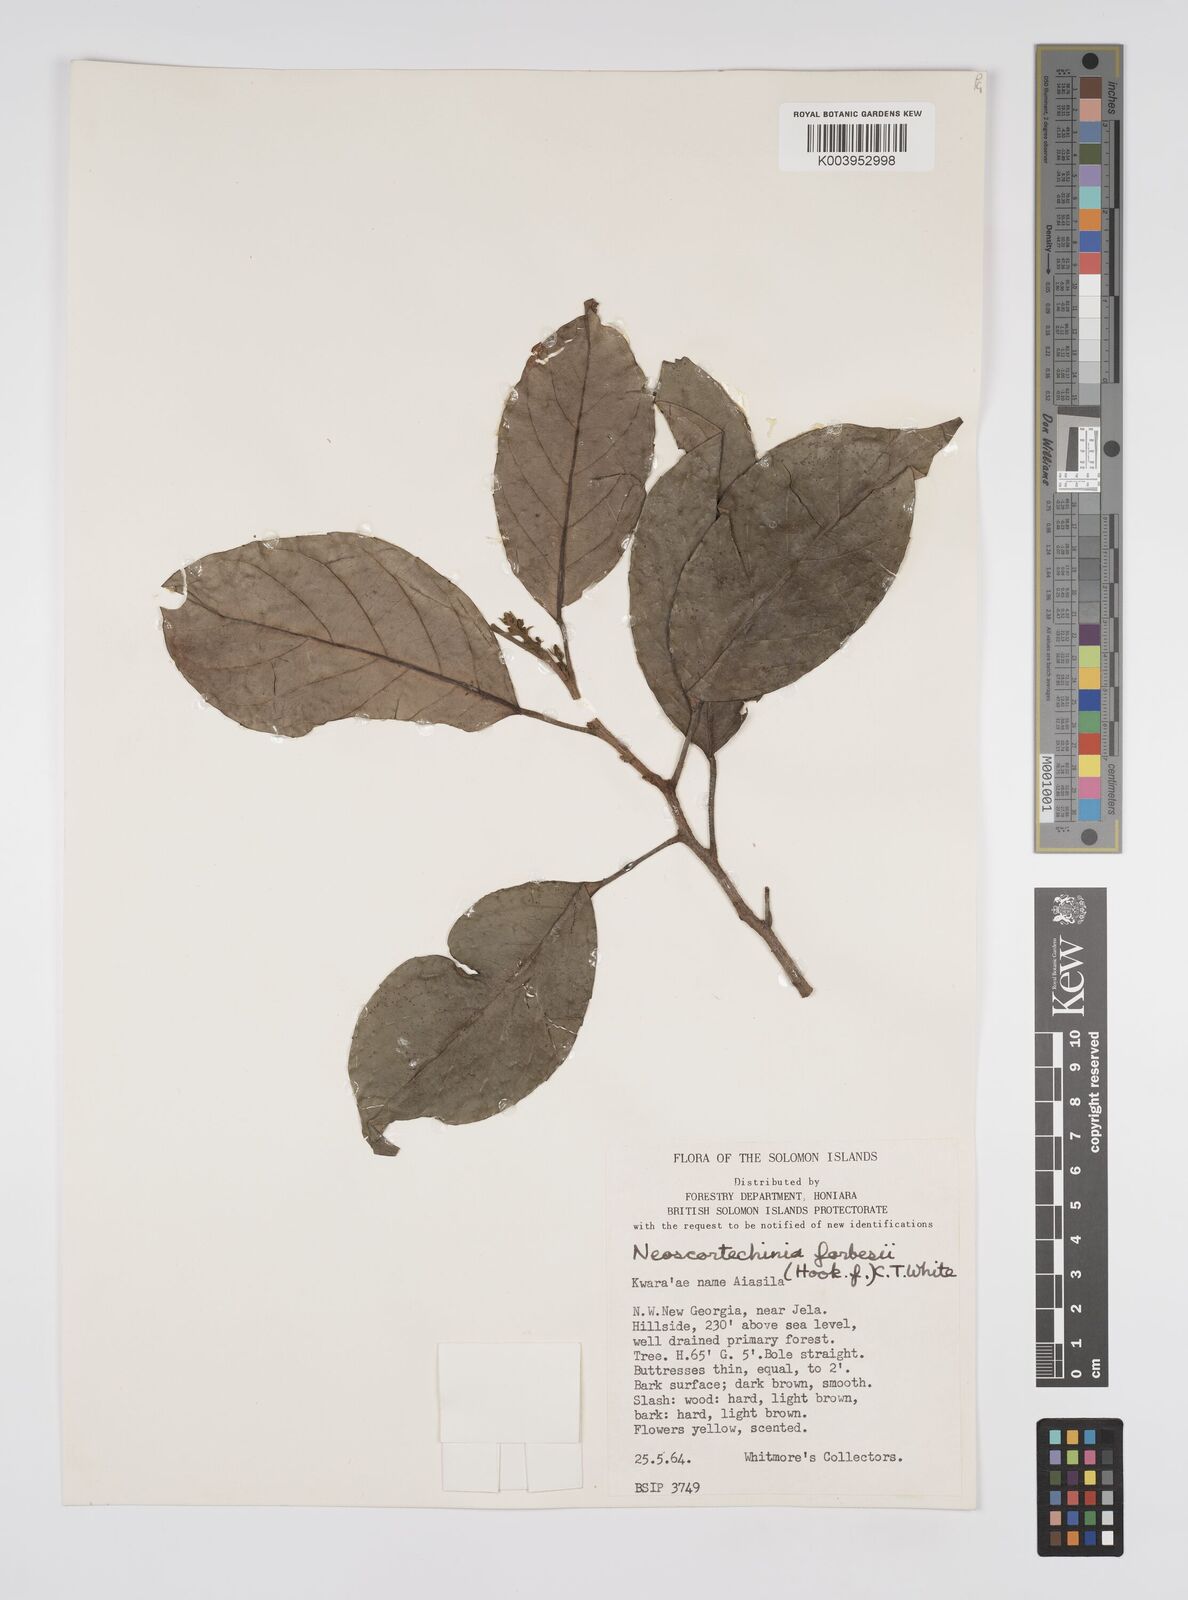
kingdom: Plantae
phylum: Tracheophyta
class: Magnoliopsida
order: Malpighiales
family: Euphorbiaceae
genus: Neoscortechinia
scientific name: Neoscortechinia forbesii
